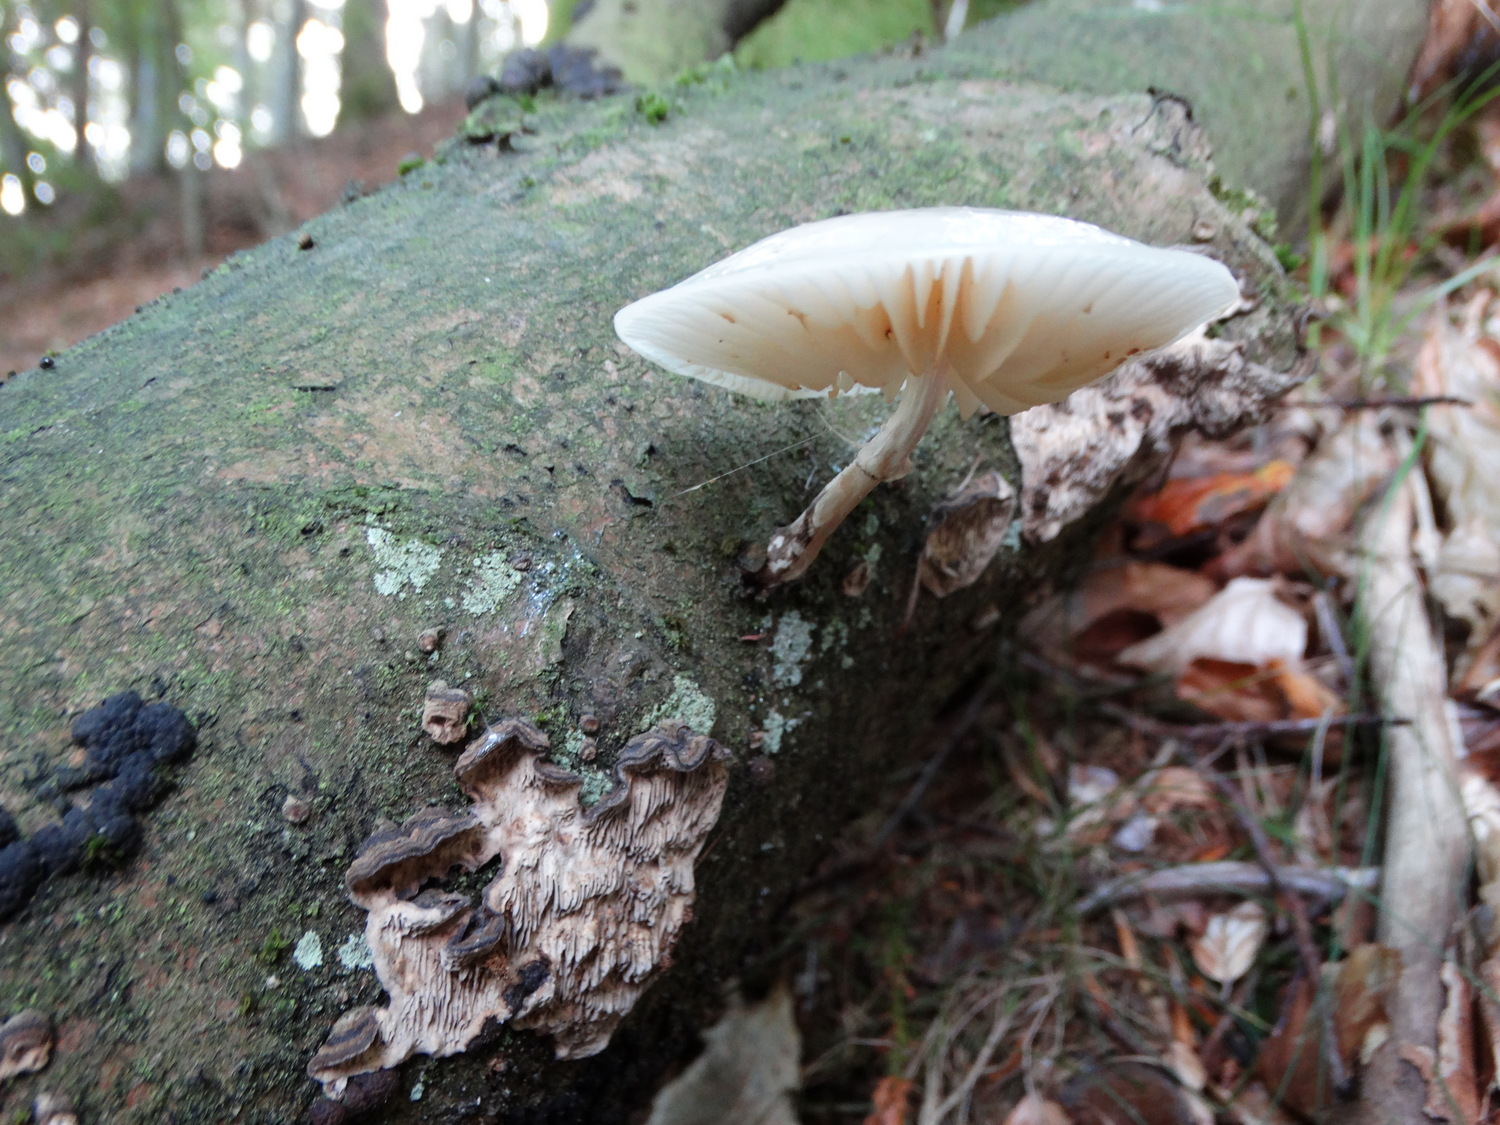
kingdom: Fungi
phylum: Basidiomycota
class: Agaricomycetes
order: Agaricales
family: Physalacriaceae
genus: Mucidula
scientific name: Mucidula mucida
